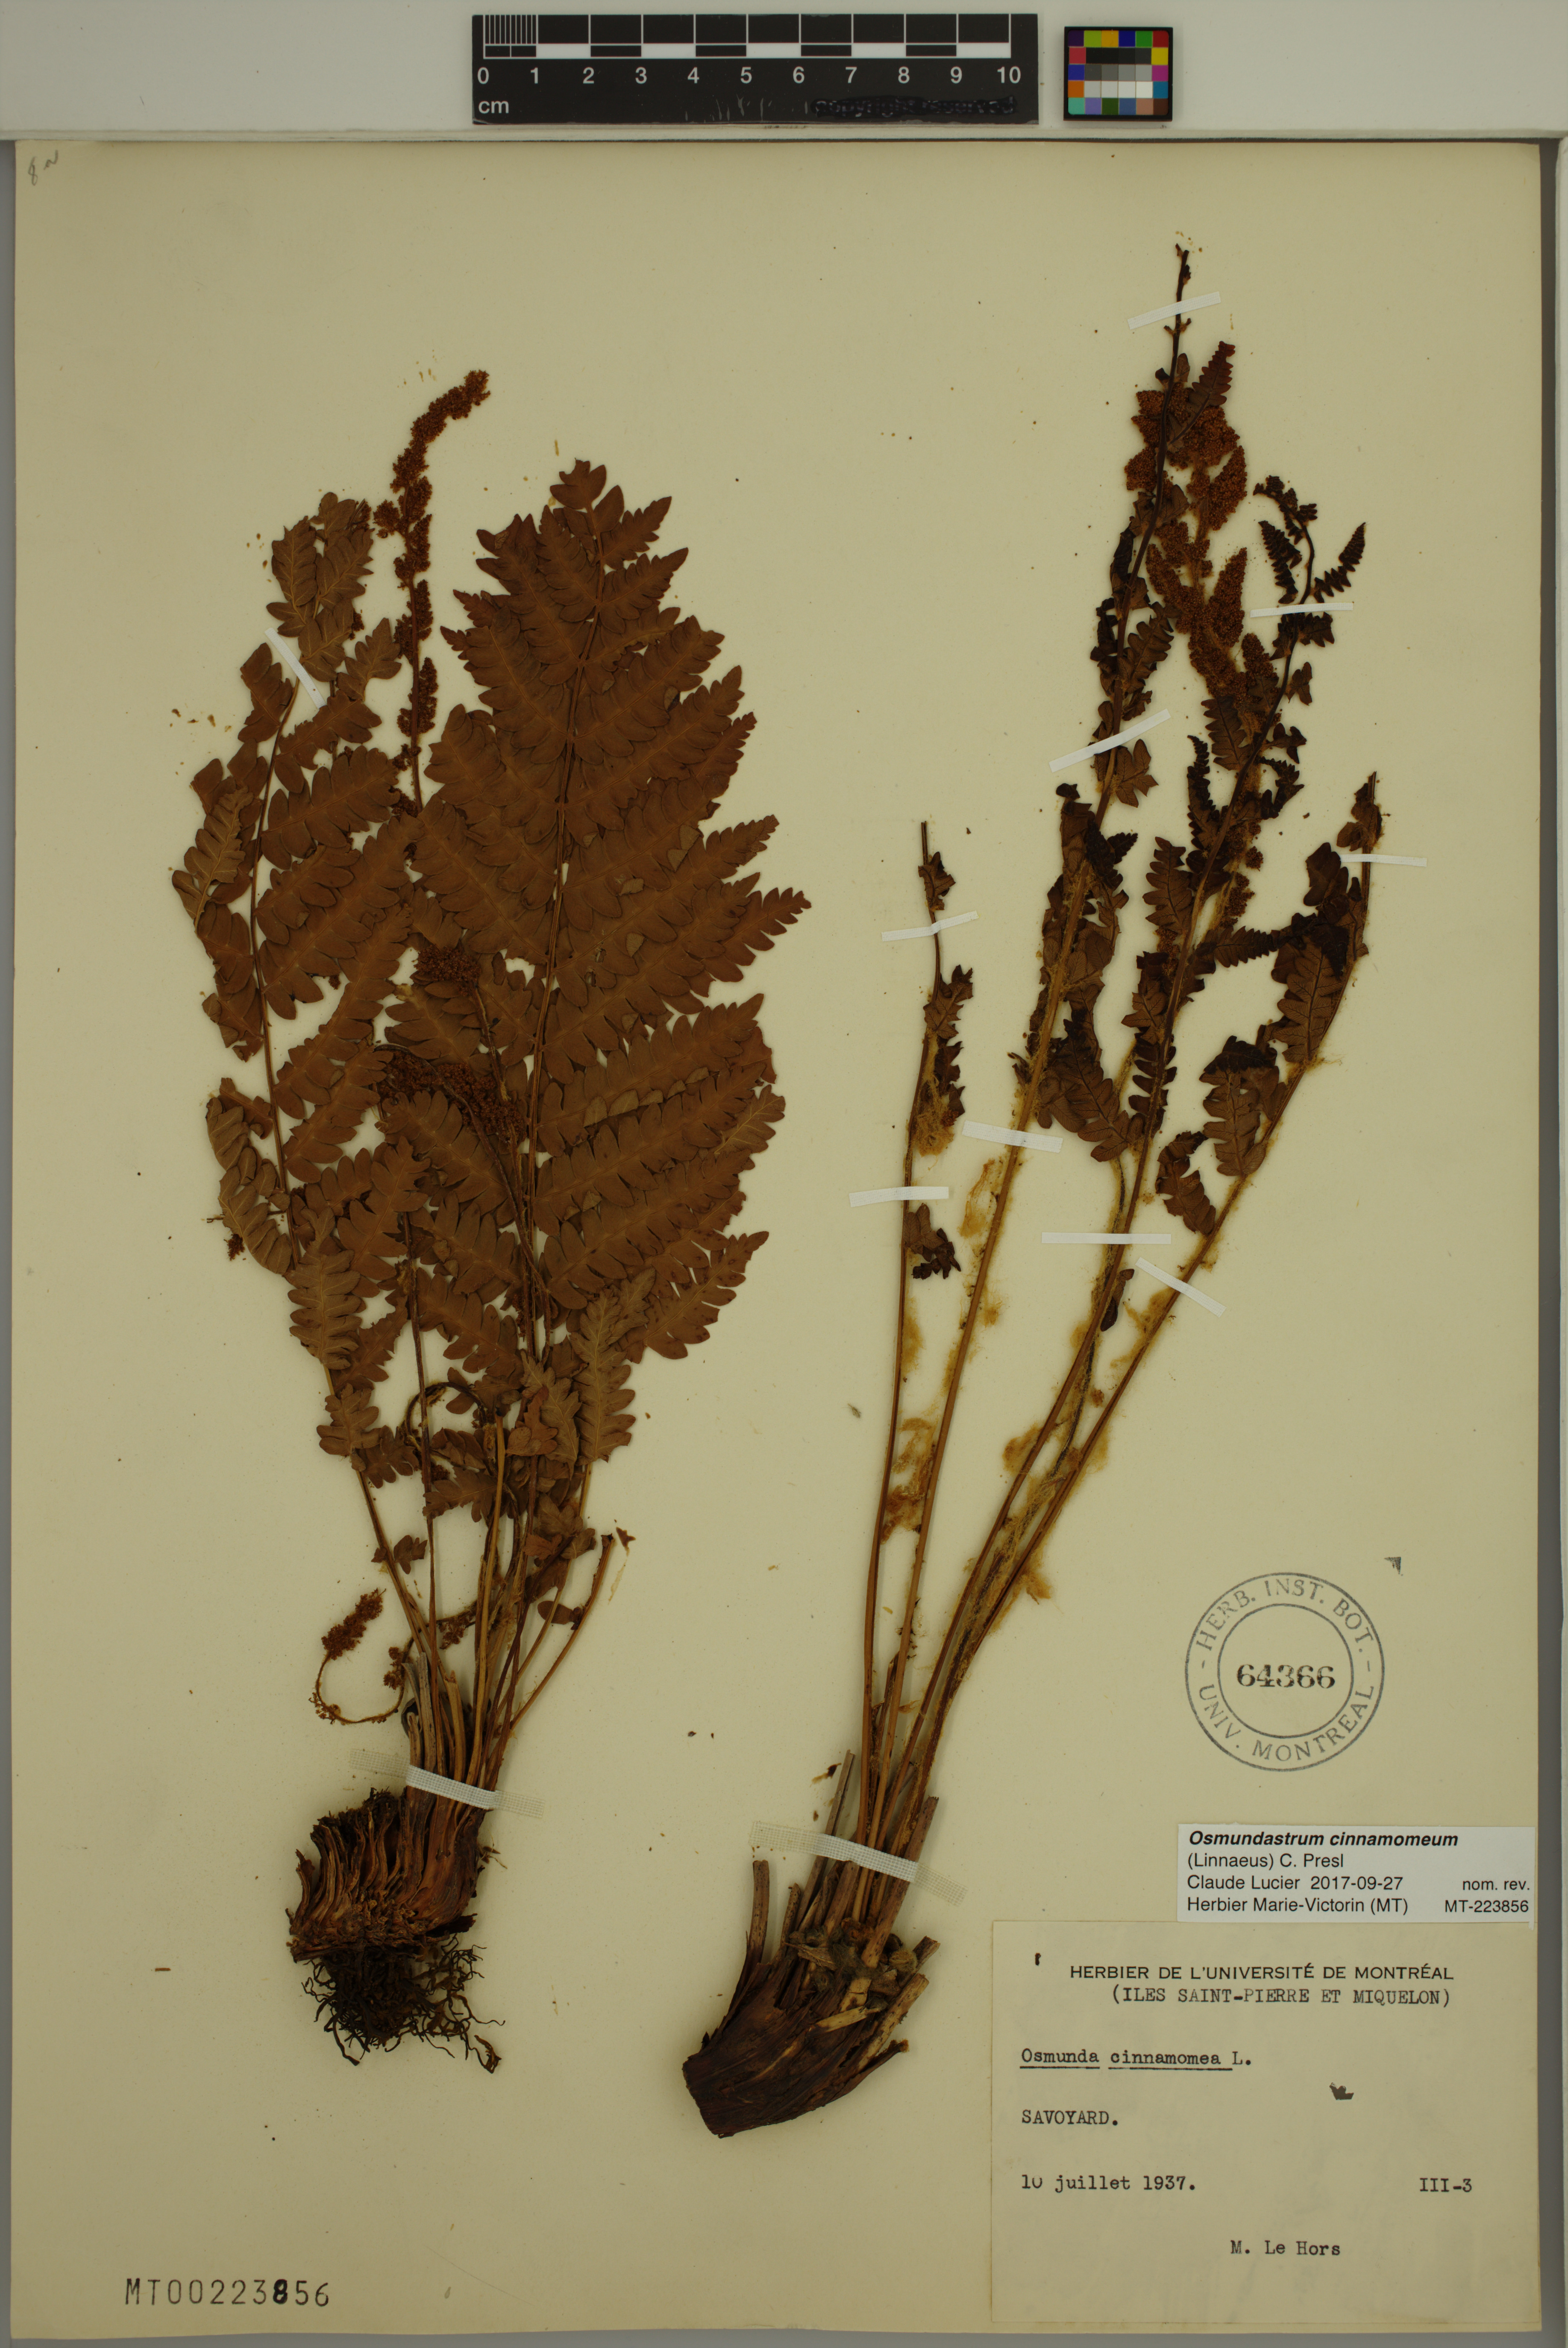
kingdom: Plantae
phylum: Tracheophyta
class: Polypodiopsida
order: Osmundales
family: Osmundaceae
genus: Osmundastrum
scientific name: Osmundastrum cinnamomeum
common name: Cinnamon fern
